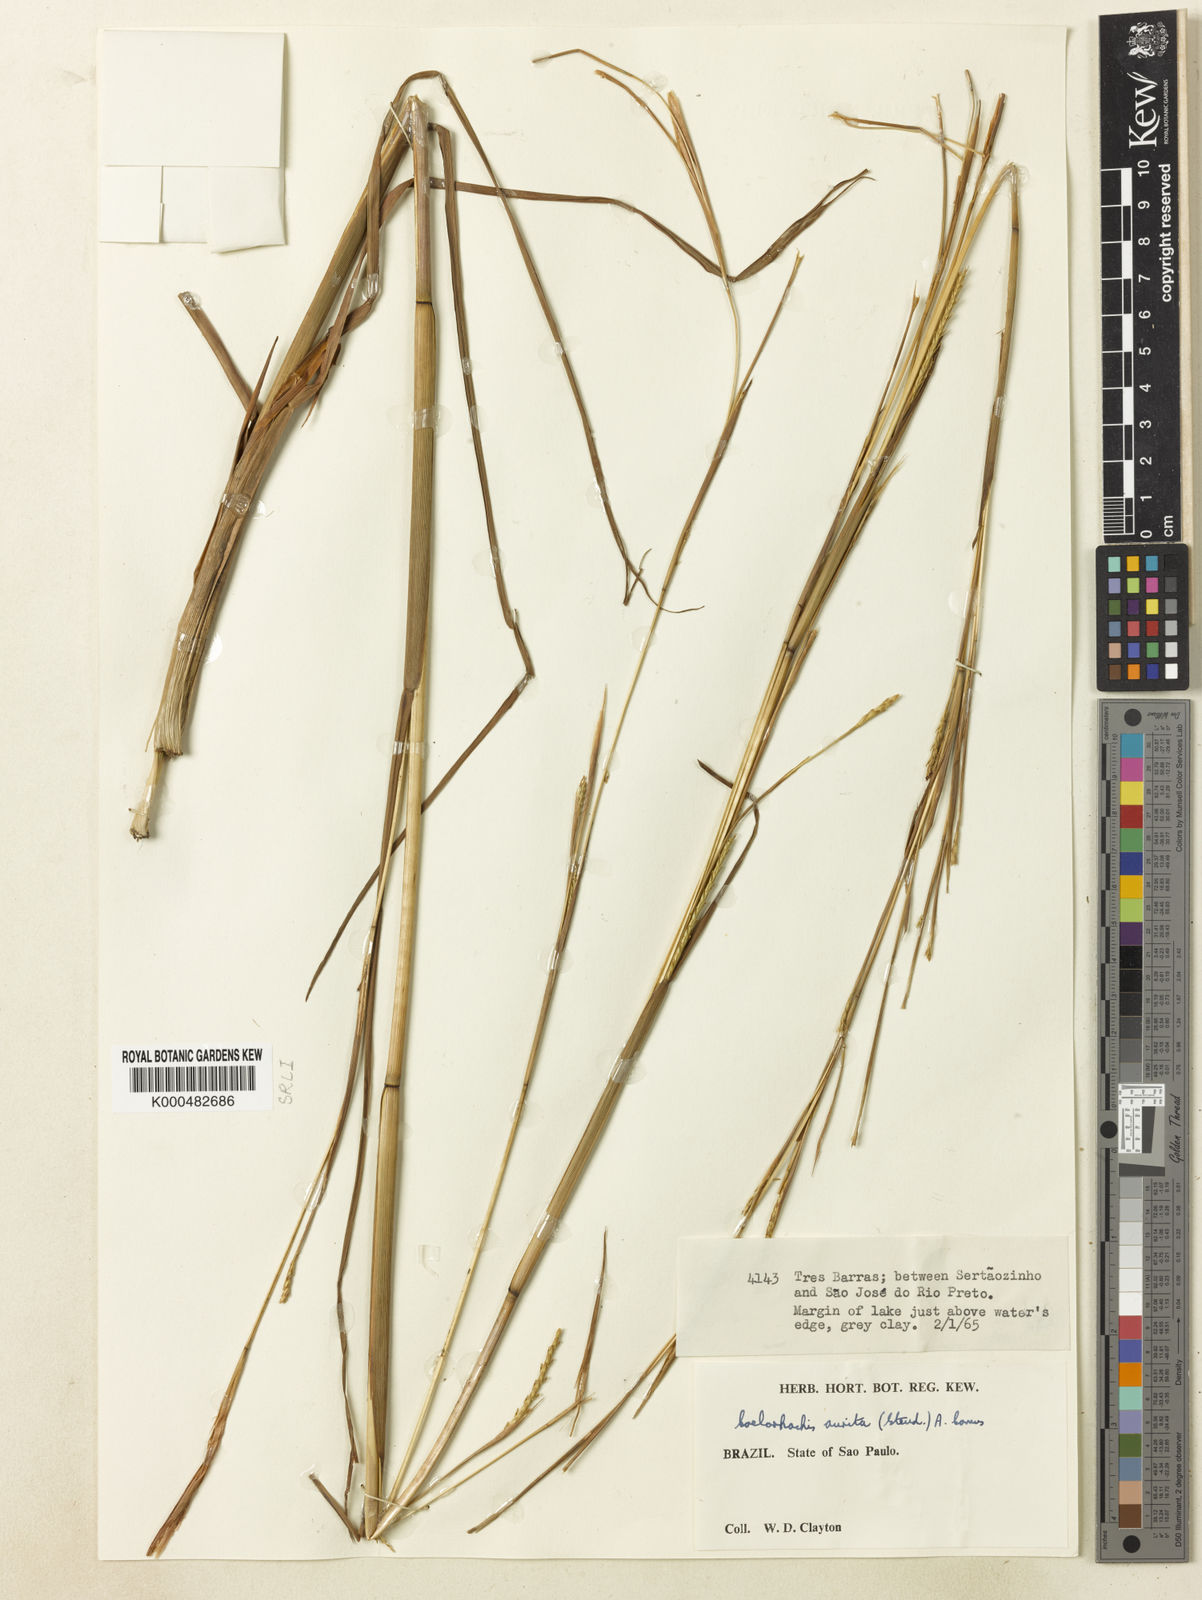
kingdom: Plantae
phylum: Tracheophyta
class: Liliopsida
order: Poales
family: Poaceae
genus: Rottboellia
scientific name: Rottboellia aurita
